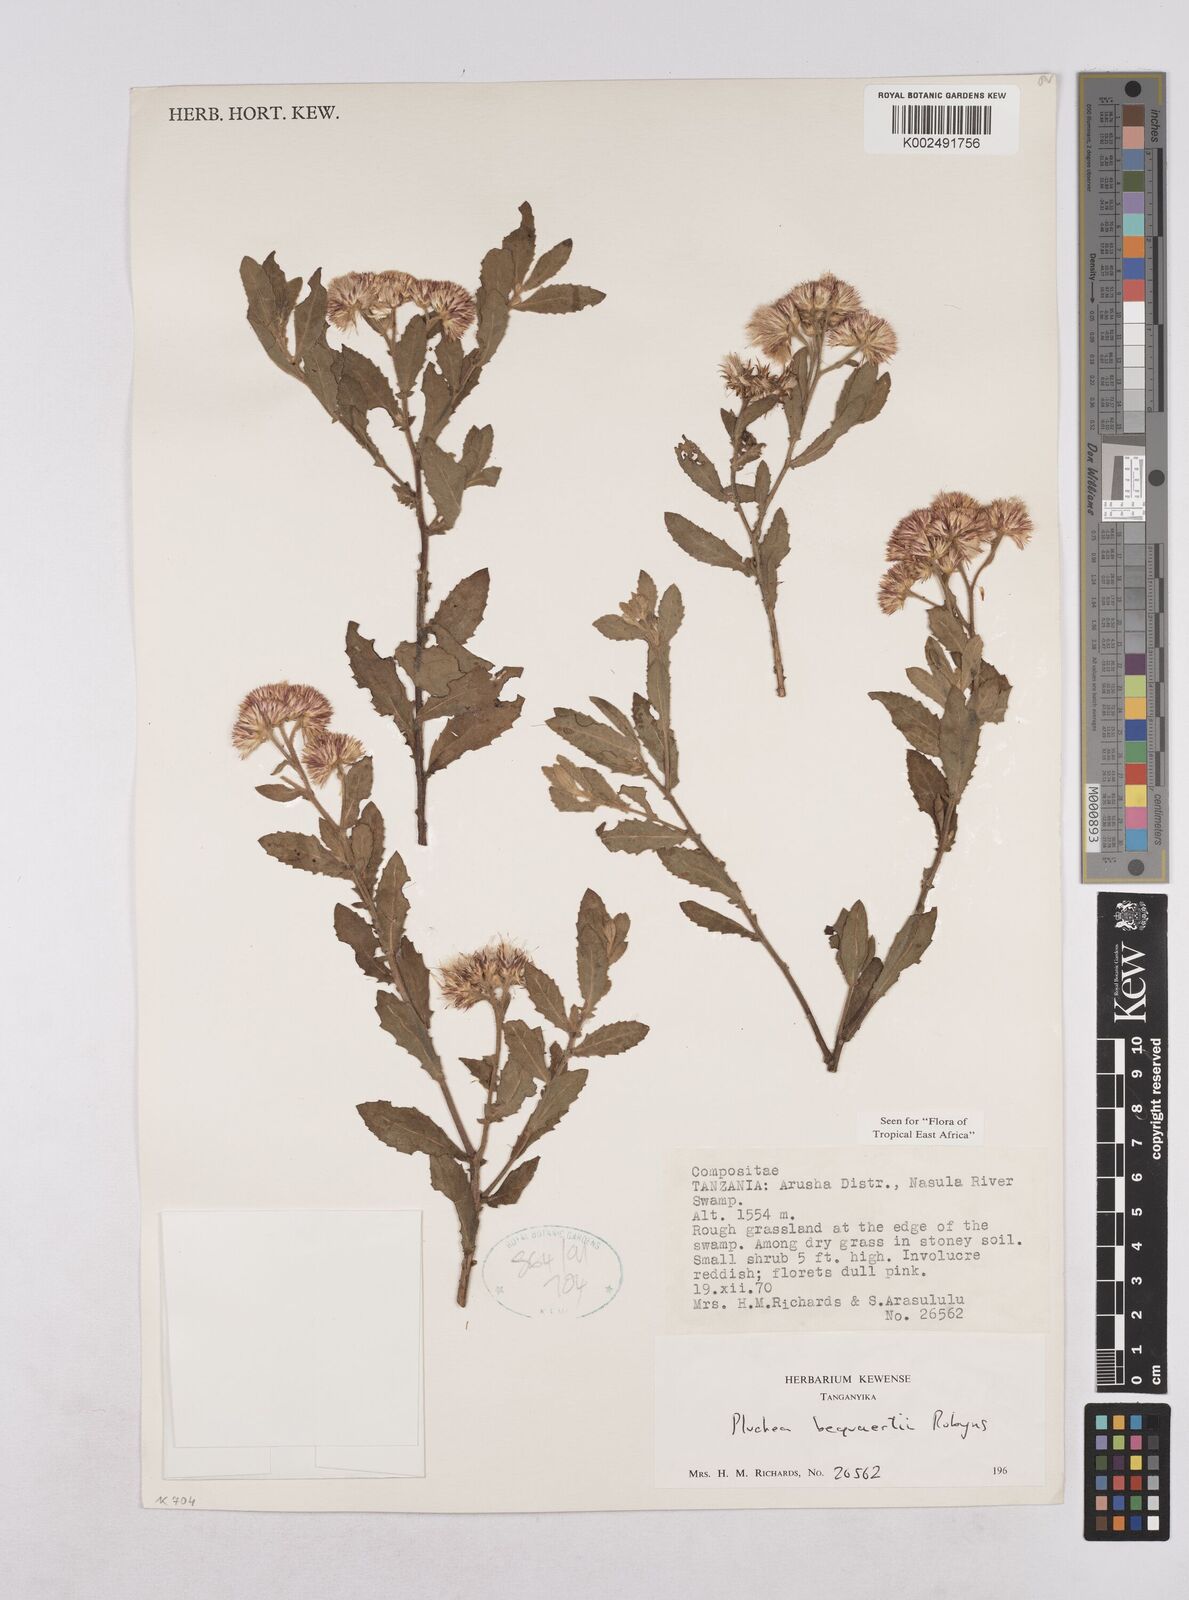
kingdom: Plantae
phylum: Tracheophyta
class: Magnoliopsida
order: Asterales
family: Asteraceae
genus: Pluchea
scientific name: Pluchea sordida
